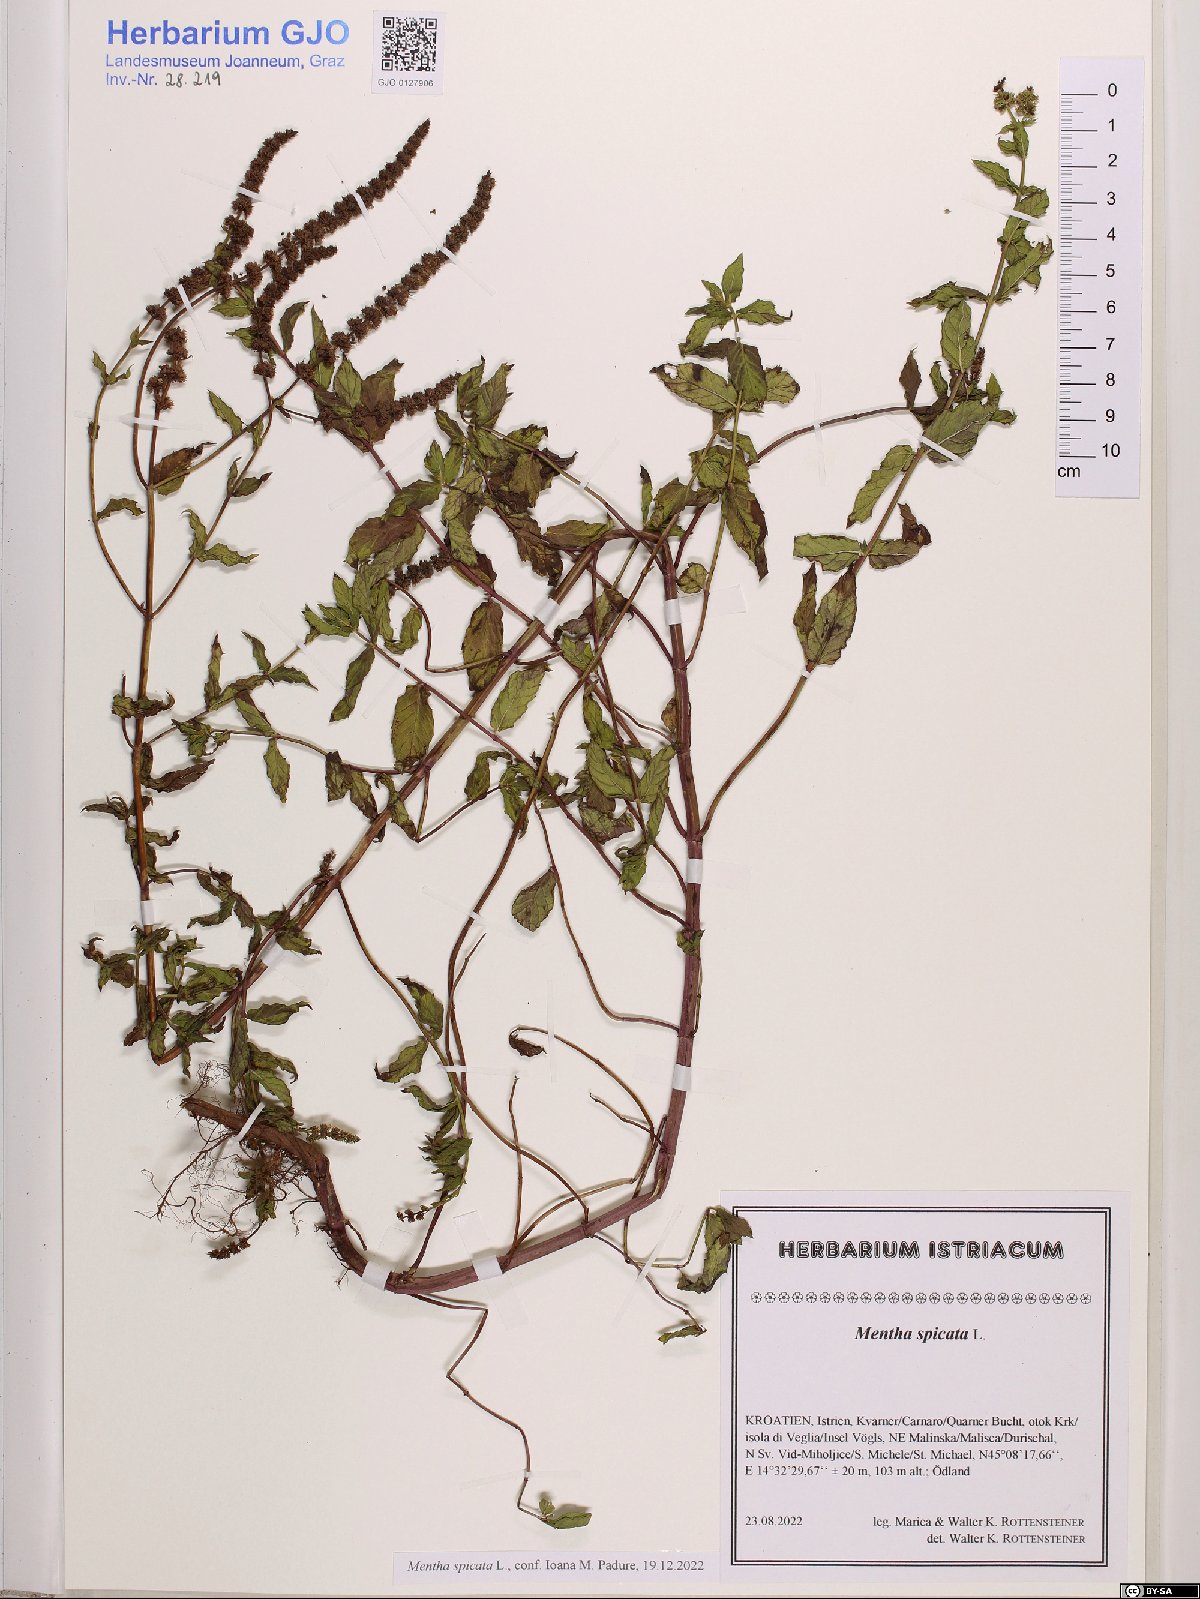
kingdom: Plantae
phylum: Tracheophyta
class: Magnoliopsida
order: Lamiales
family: Lamiaceae
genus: Mentha
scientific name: Mentha spicata
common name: Spearmint
